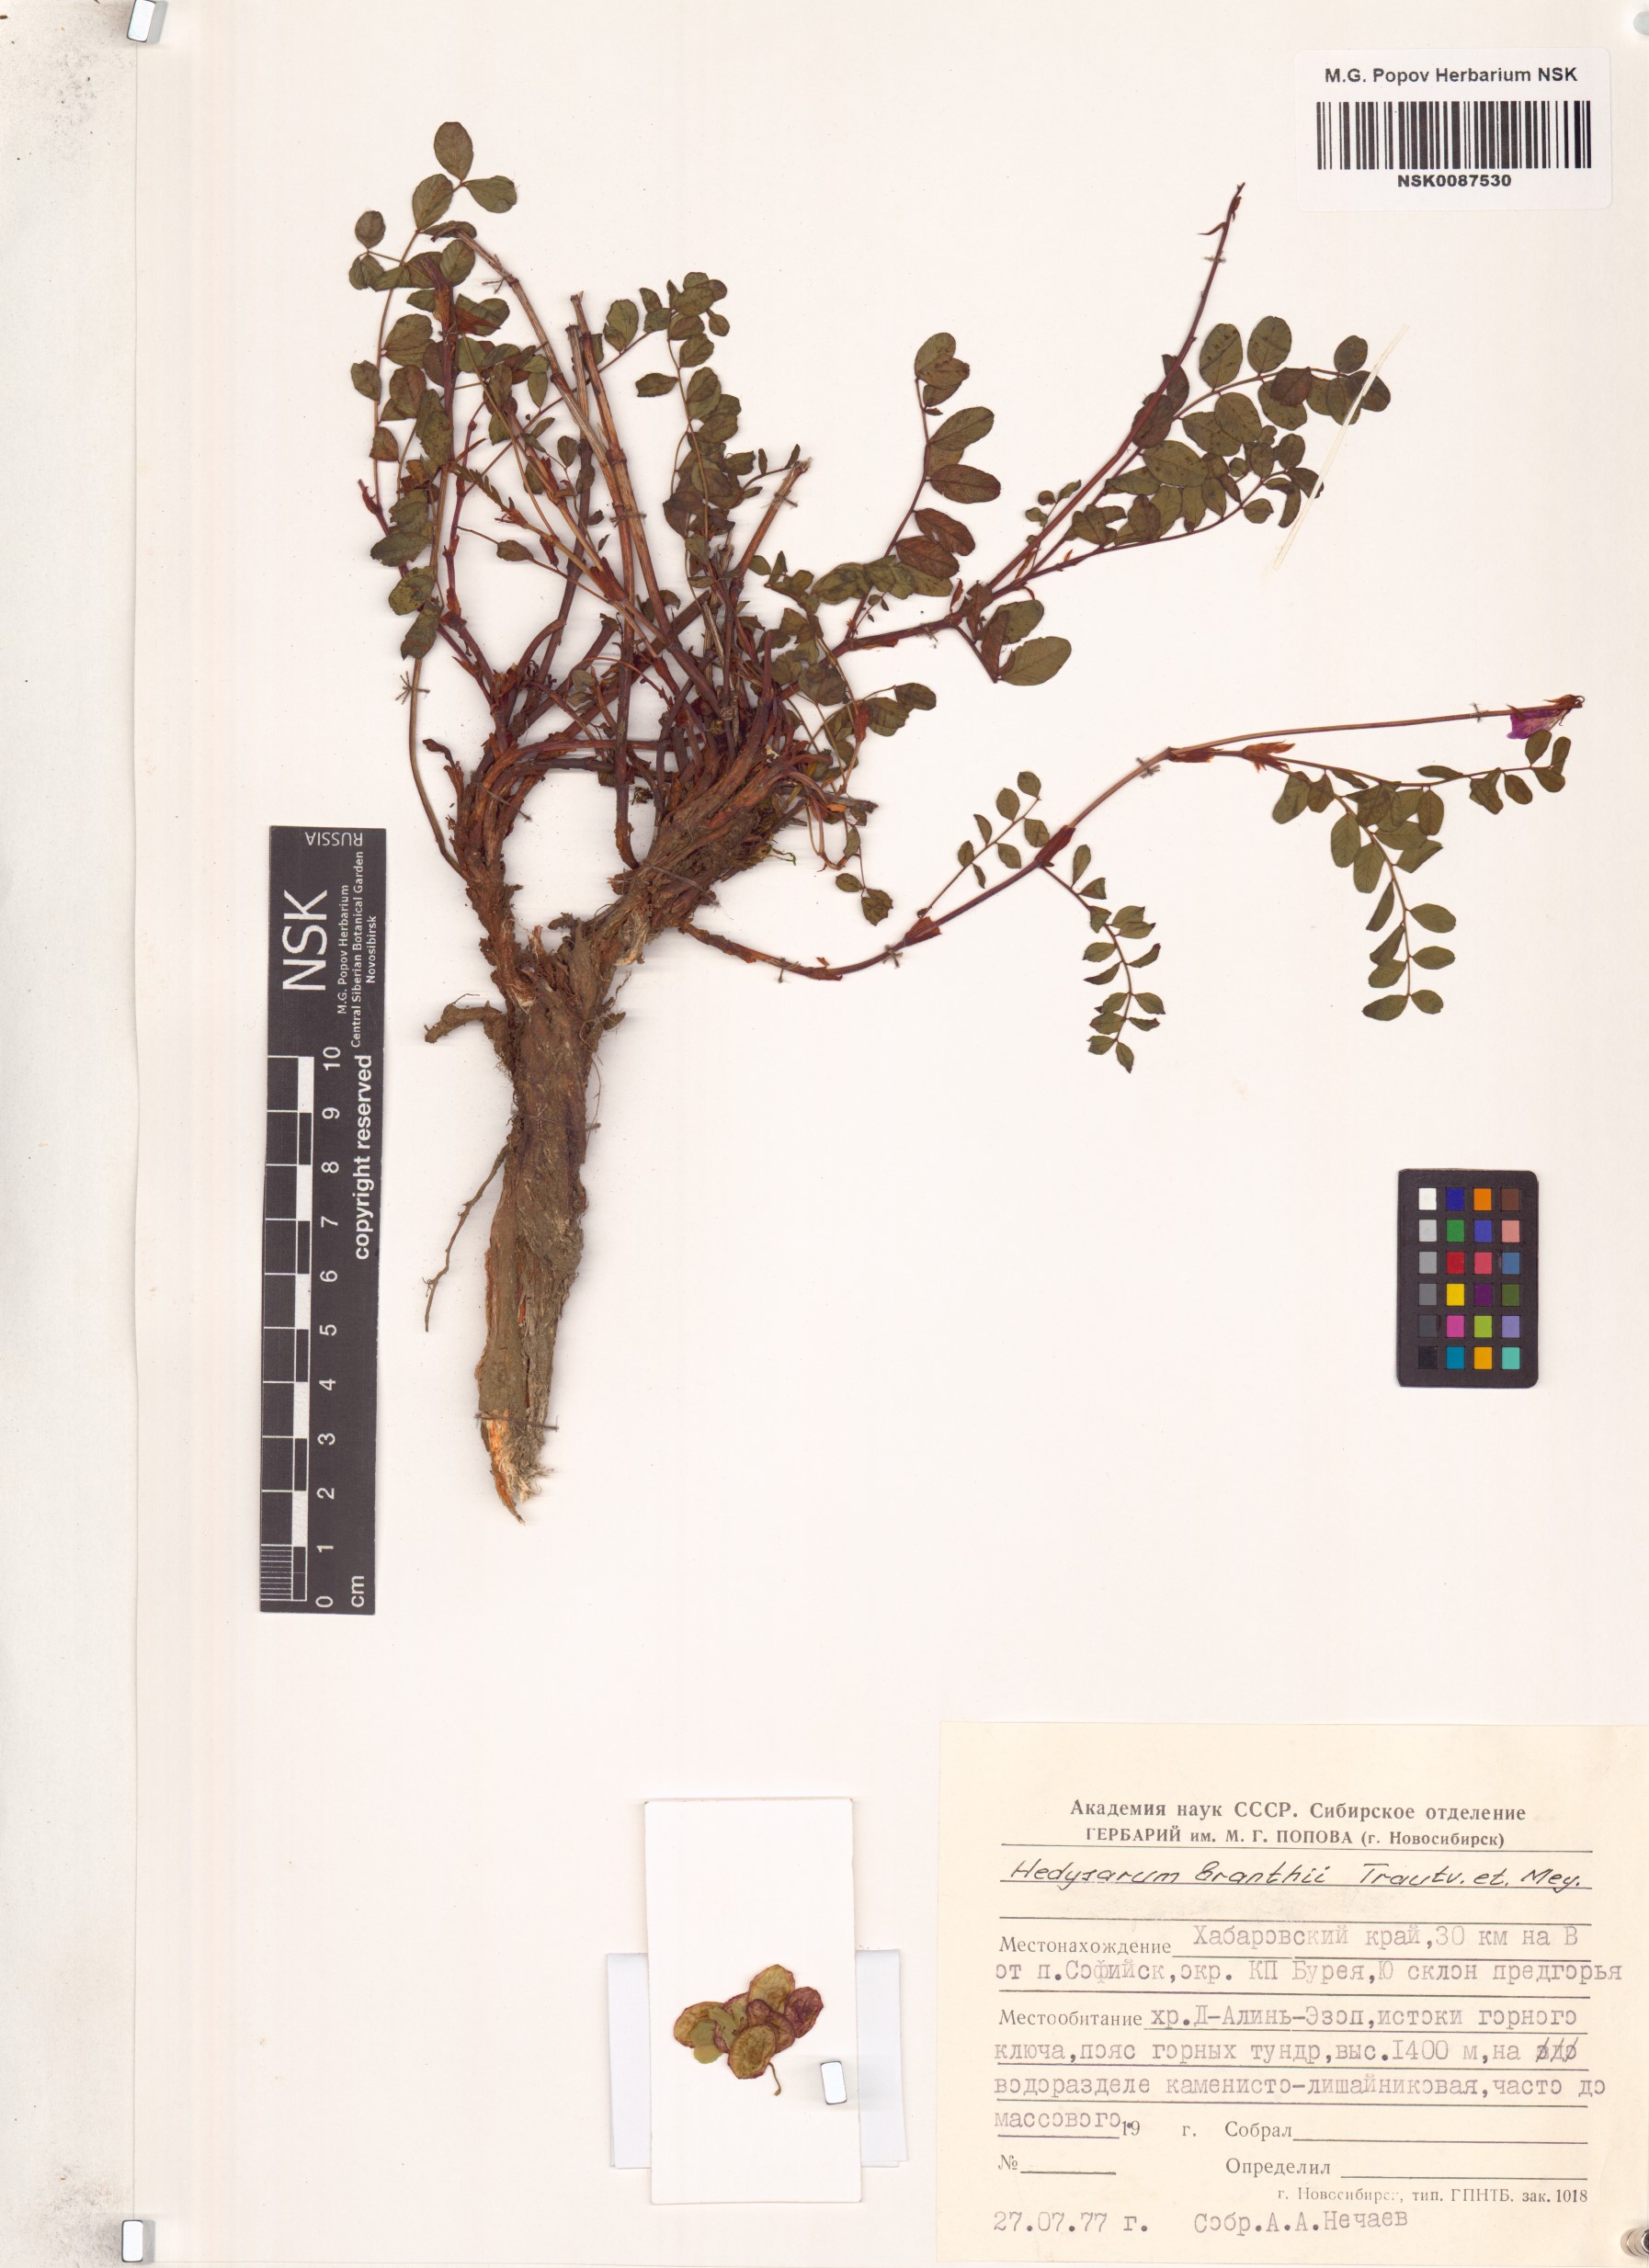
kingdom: Plantae
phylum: Tracheophyta
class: Magnoliopsida
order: Fabales
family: Fabaceae
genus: Hedysarum
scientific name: Hedysarum branthii
